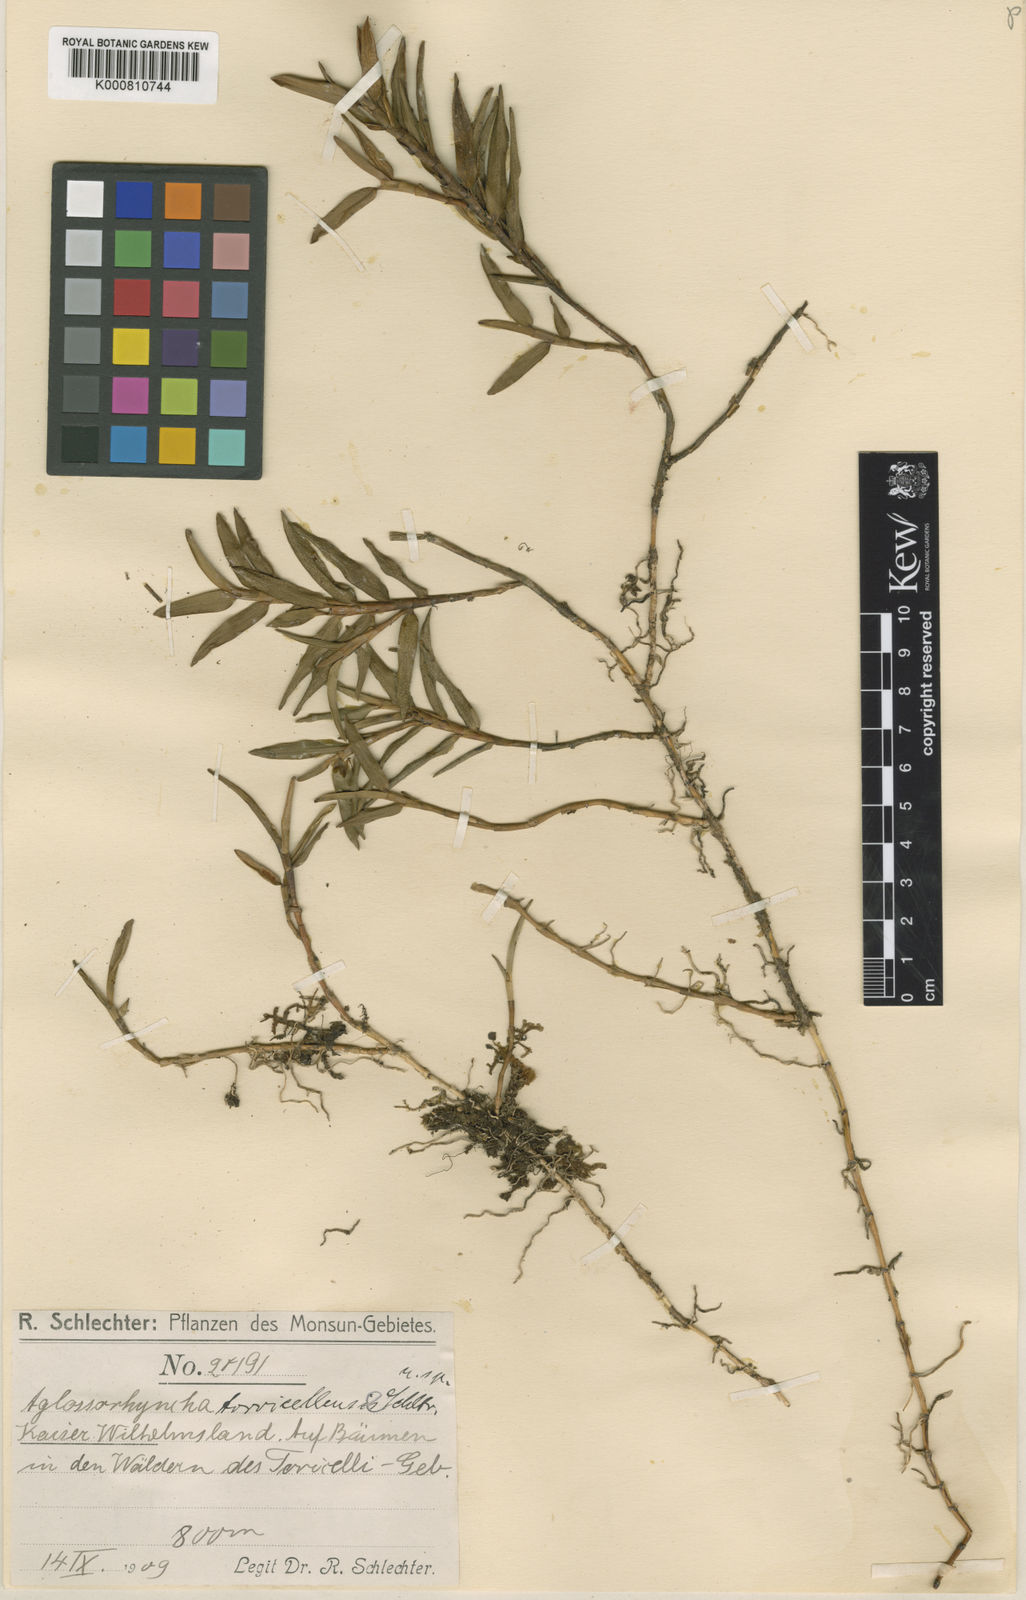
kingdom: Plantae
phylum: Tracheophyta
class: Liliopsida
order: Asparagales
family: Orchidaceae
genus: Aglossorrhyncha
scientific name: Aglossorrhyncha torricellensis
